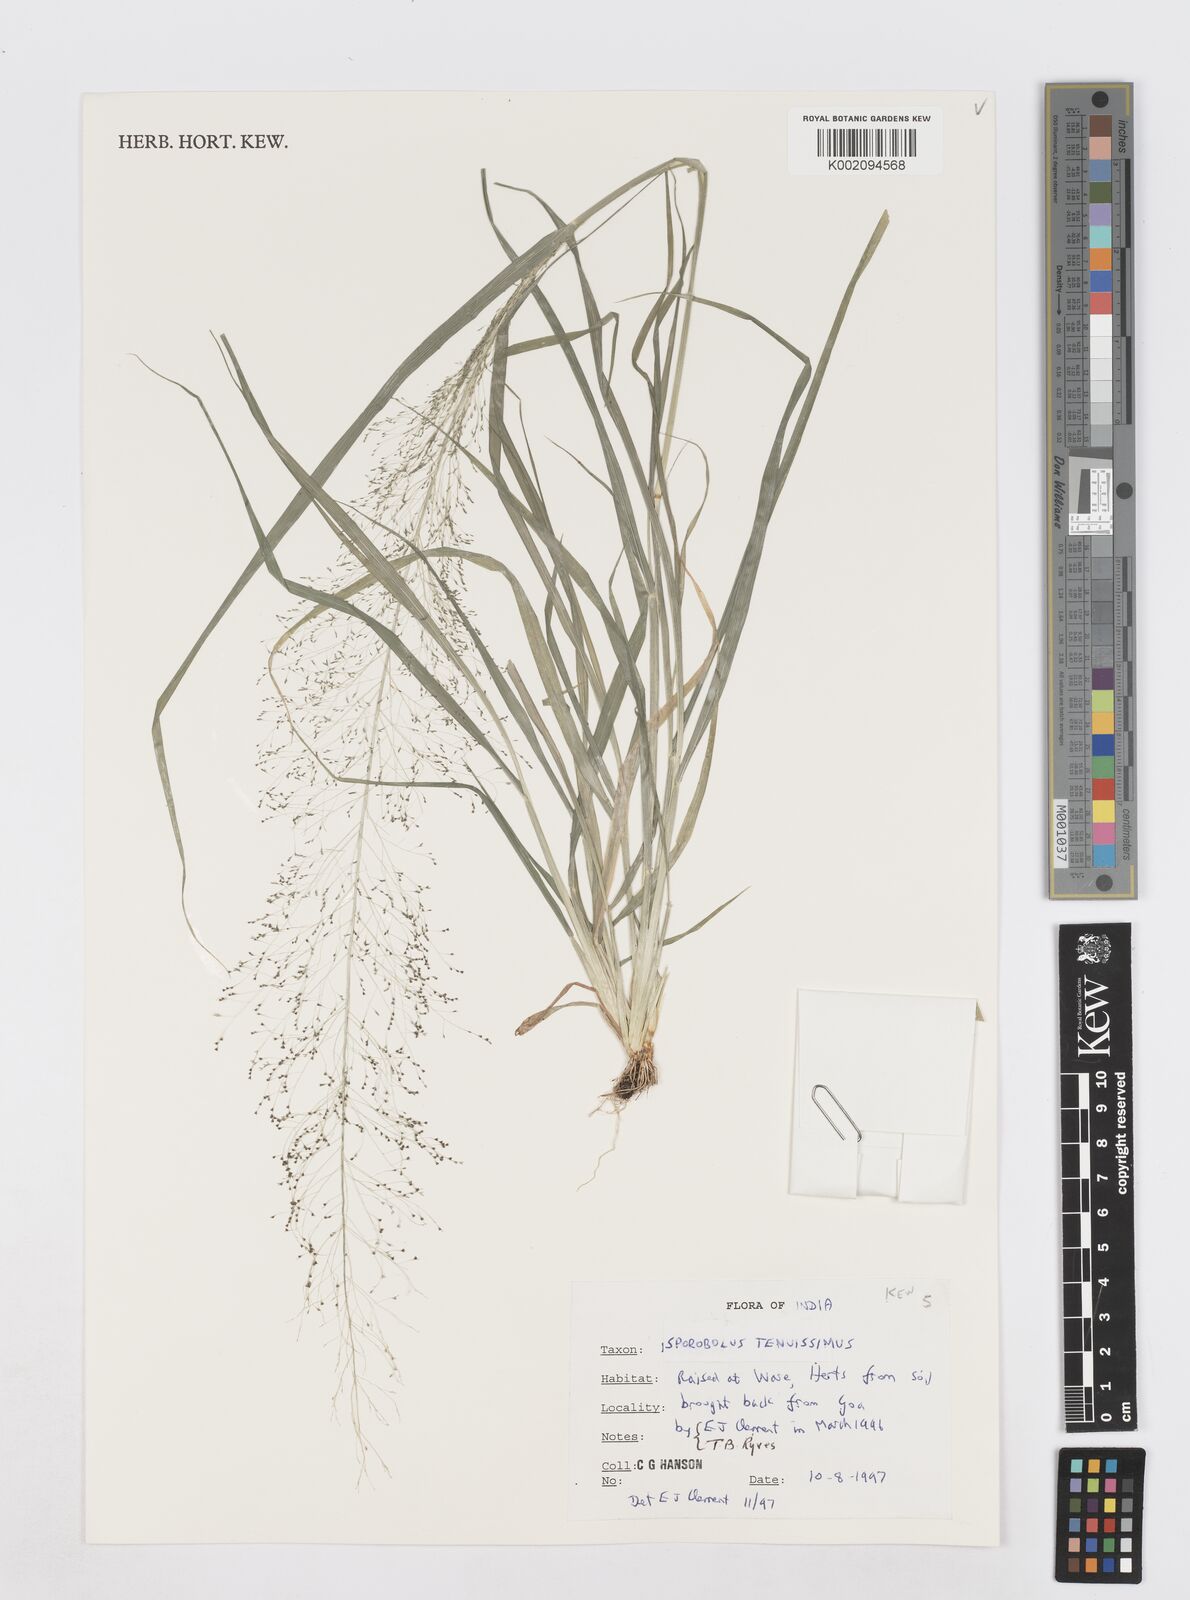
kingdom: Plantae
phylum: Tracheophyta
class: Liliopsida
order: Poales
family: Poaceae
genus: Sporobolus
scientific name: Sporobolus tenuissimus
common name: Tropical dropseed
